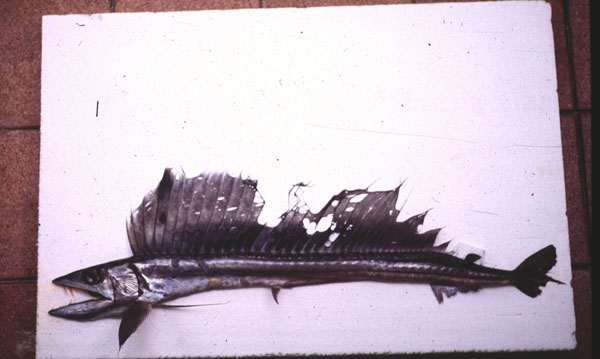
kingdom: Animalia
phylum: Chordata
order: Aulopiformes
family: Alepisauridae
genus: Alepisaurus
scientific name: Alepisaurus ferox
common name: Longnose lancetfish
